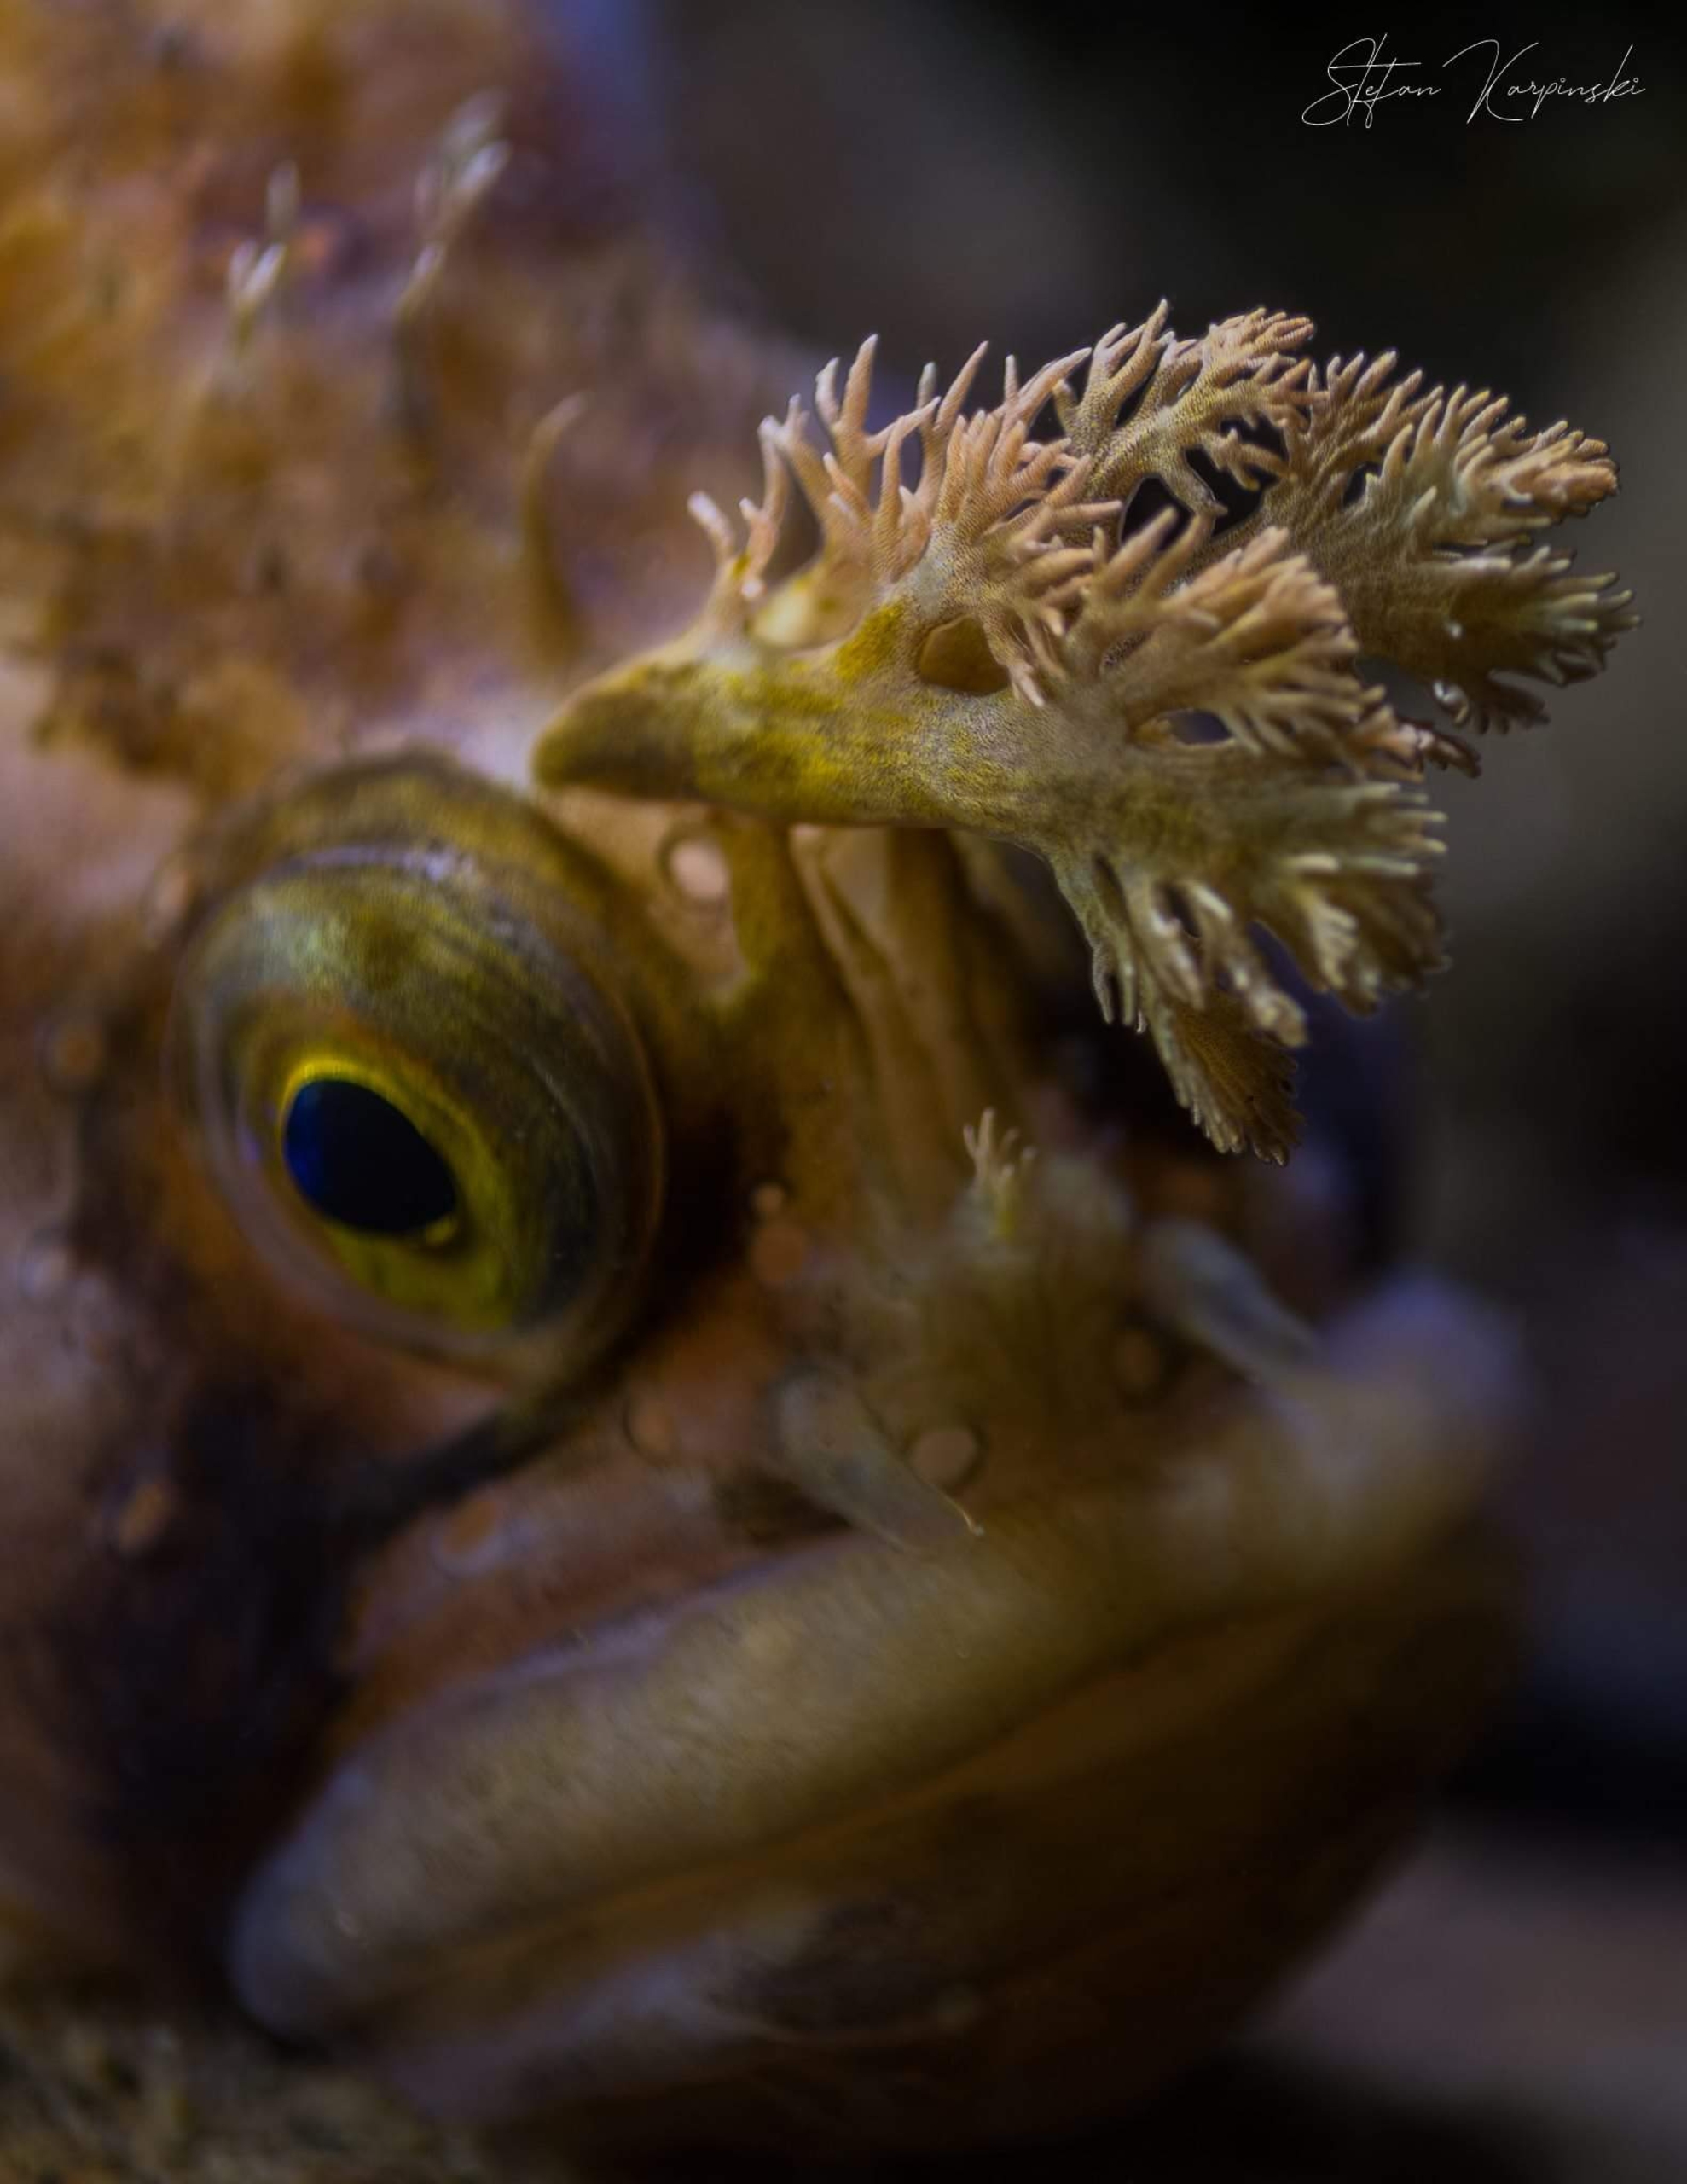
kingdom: Animalia
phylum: Chordata
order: Perciformes
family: Stichaeidae
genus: Chirolophis
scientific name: Chirolophis ascanii
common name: Buskhoved
